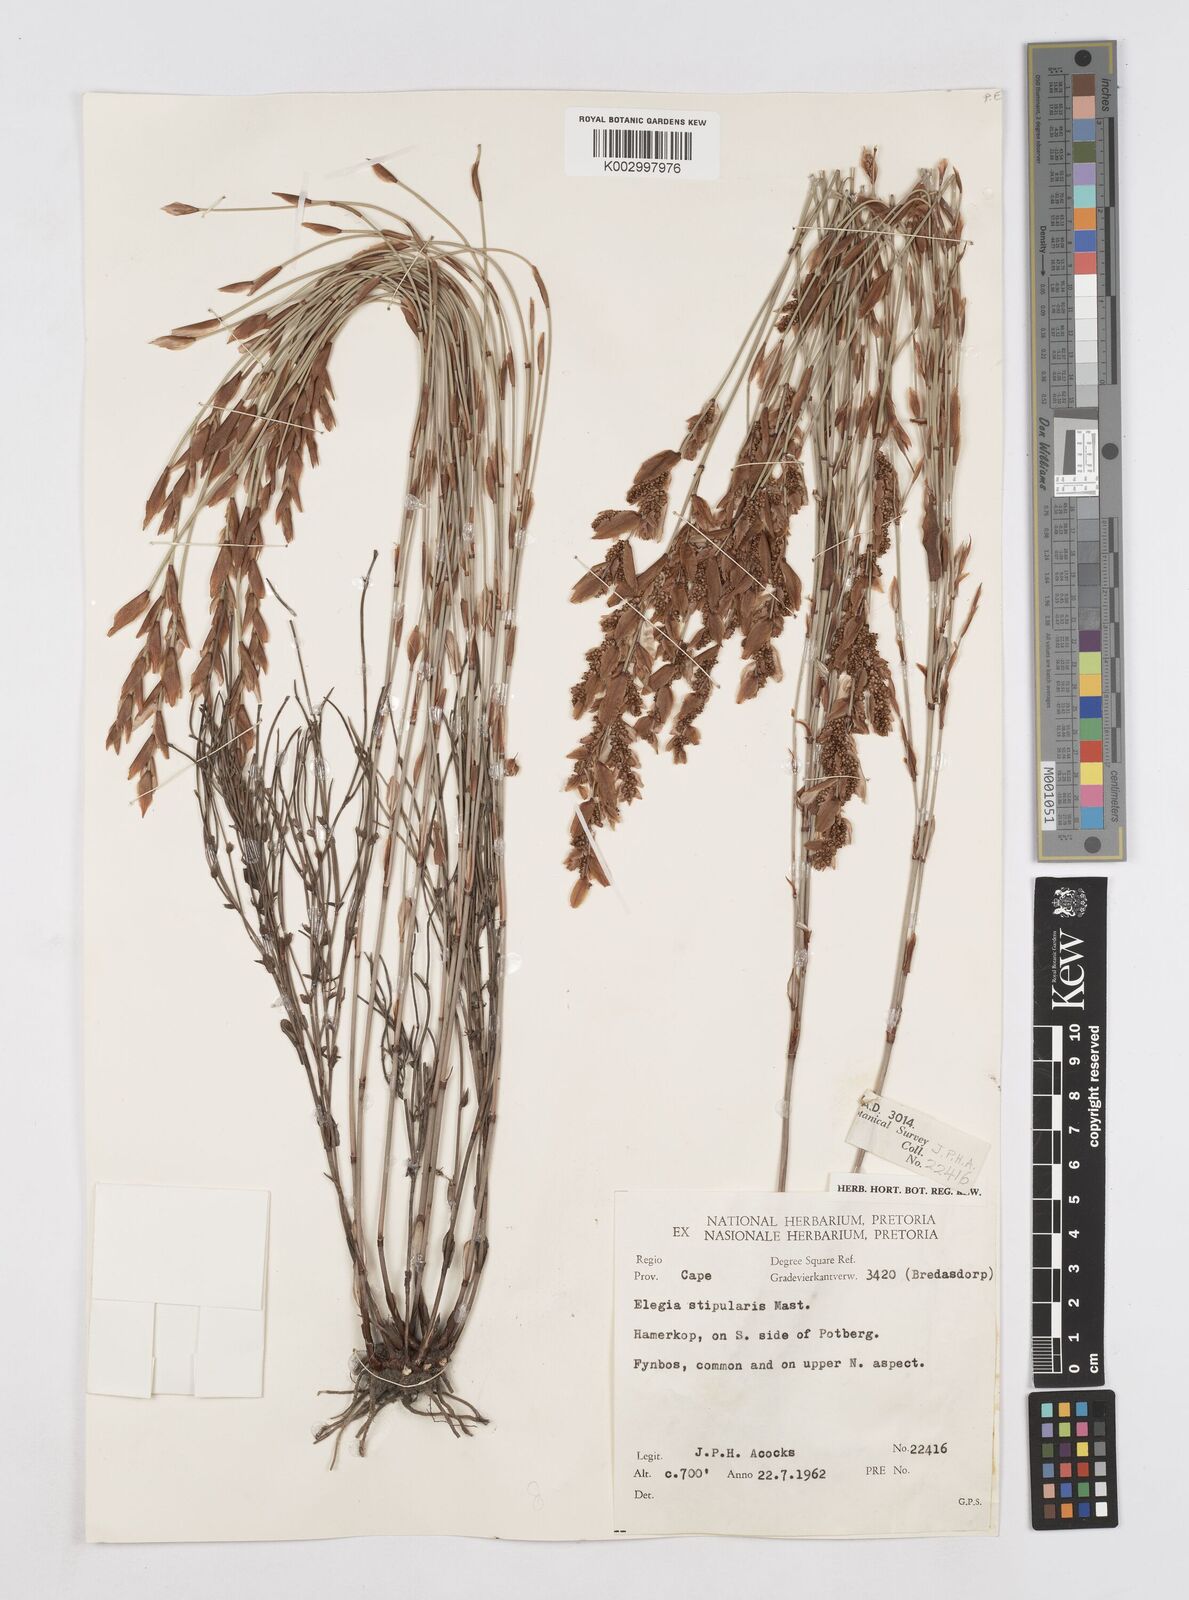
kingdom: Plantae
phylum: Tracheophyta
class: Liliopsida
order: Poales
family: Restionaceae
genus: Elegia
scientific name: Elegia stipularis
